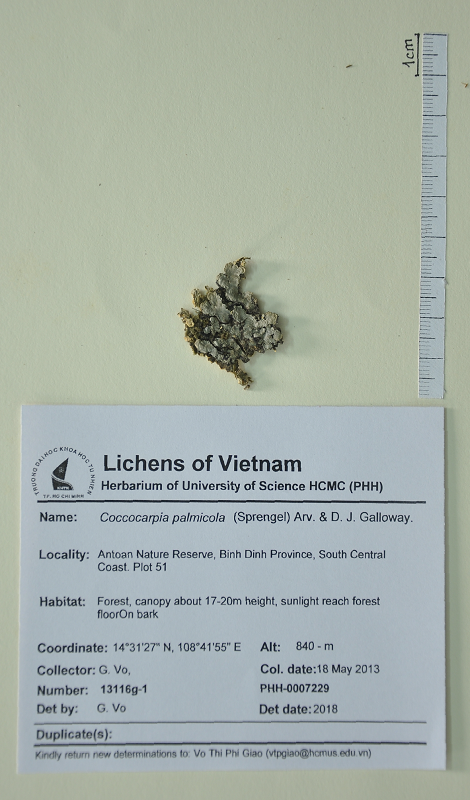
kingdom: Fungi
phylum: Ascomycota
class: Lecanoromycetes
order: Peltigerales
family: Coccocarpiaceae
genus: Coccocarpia
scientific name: Coccocarpia palmicola
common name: Salted shell lichen
